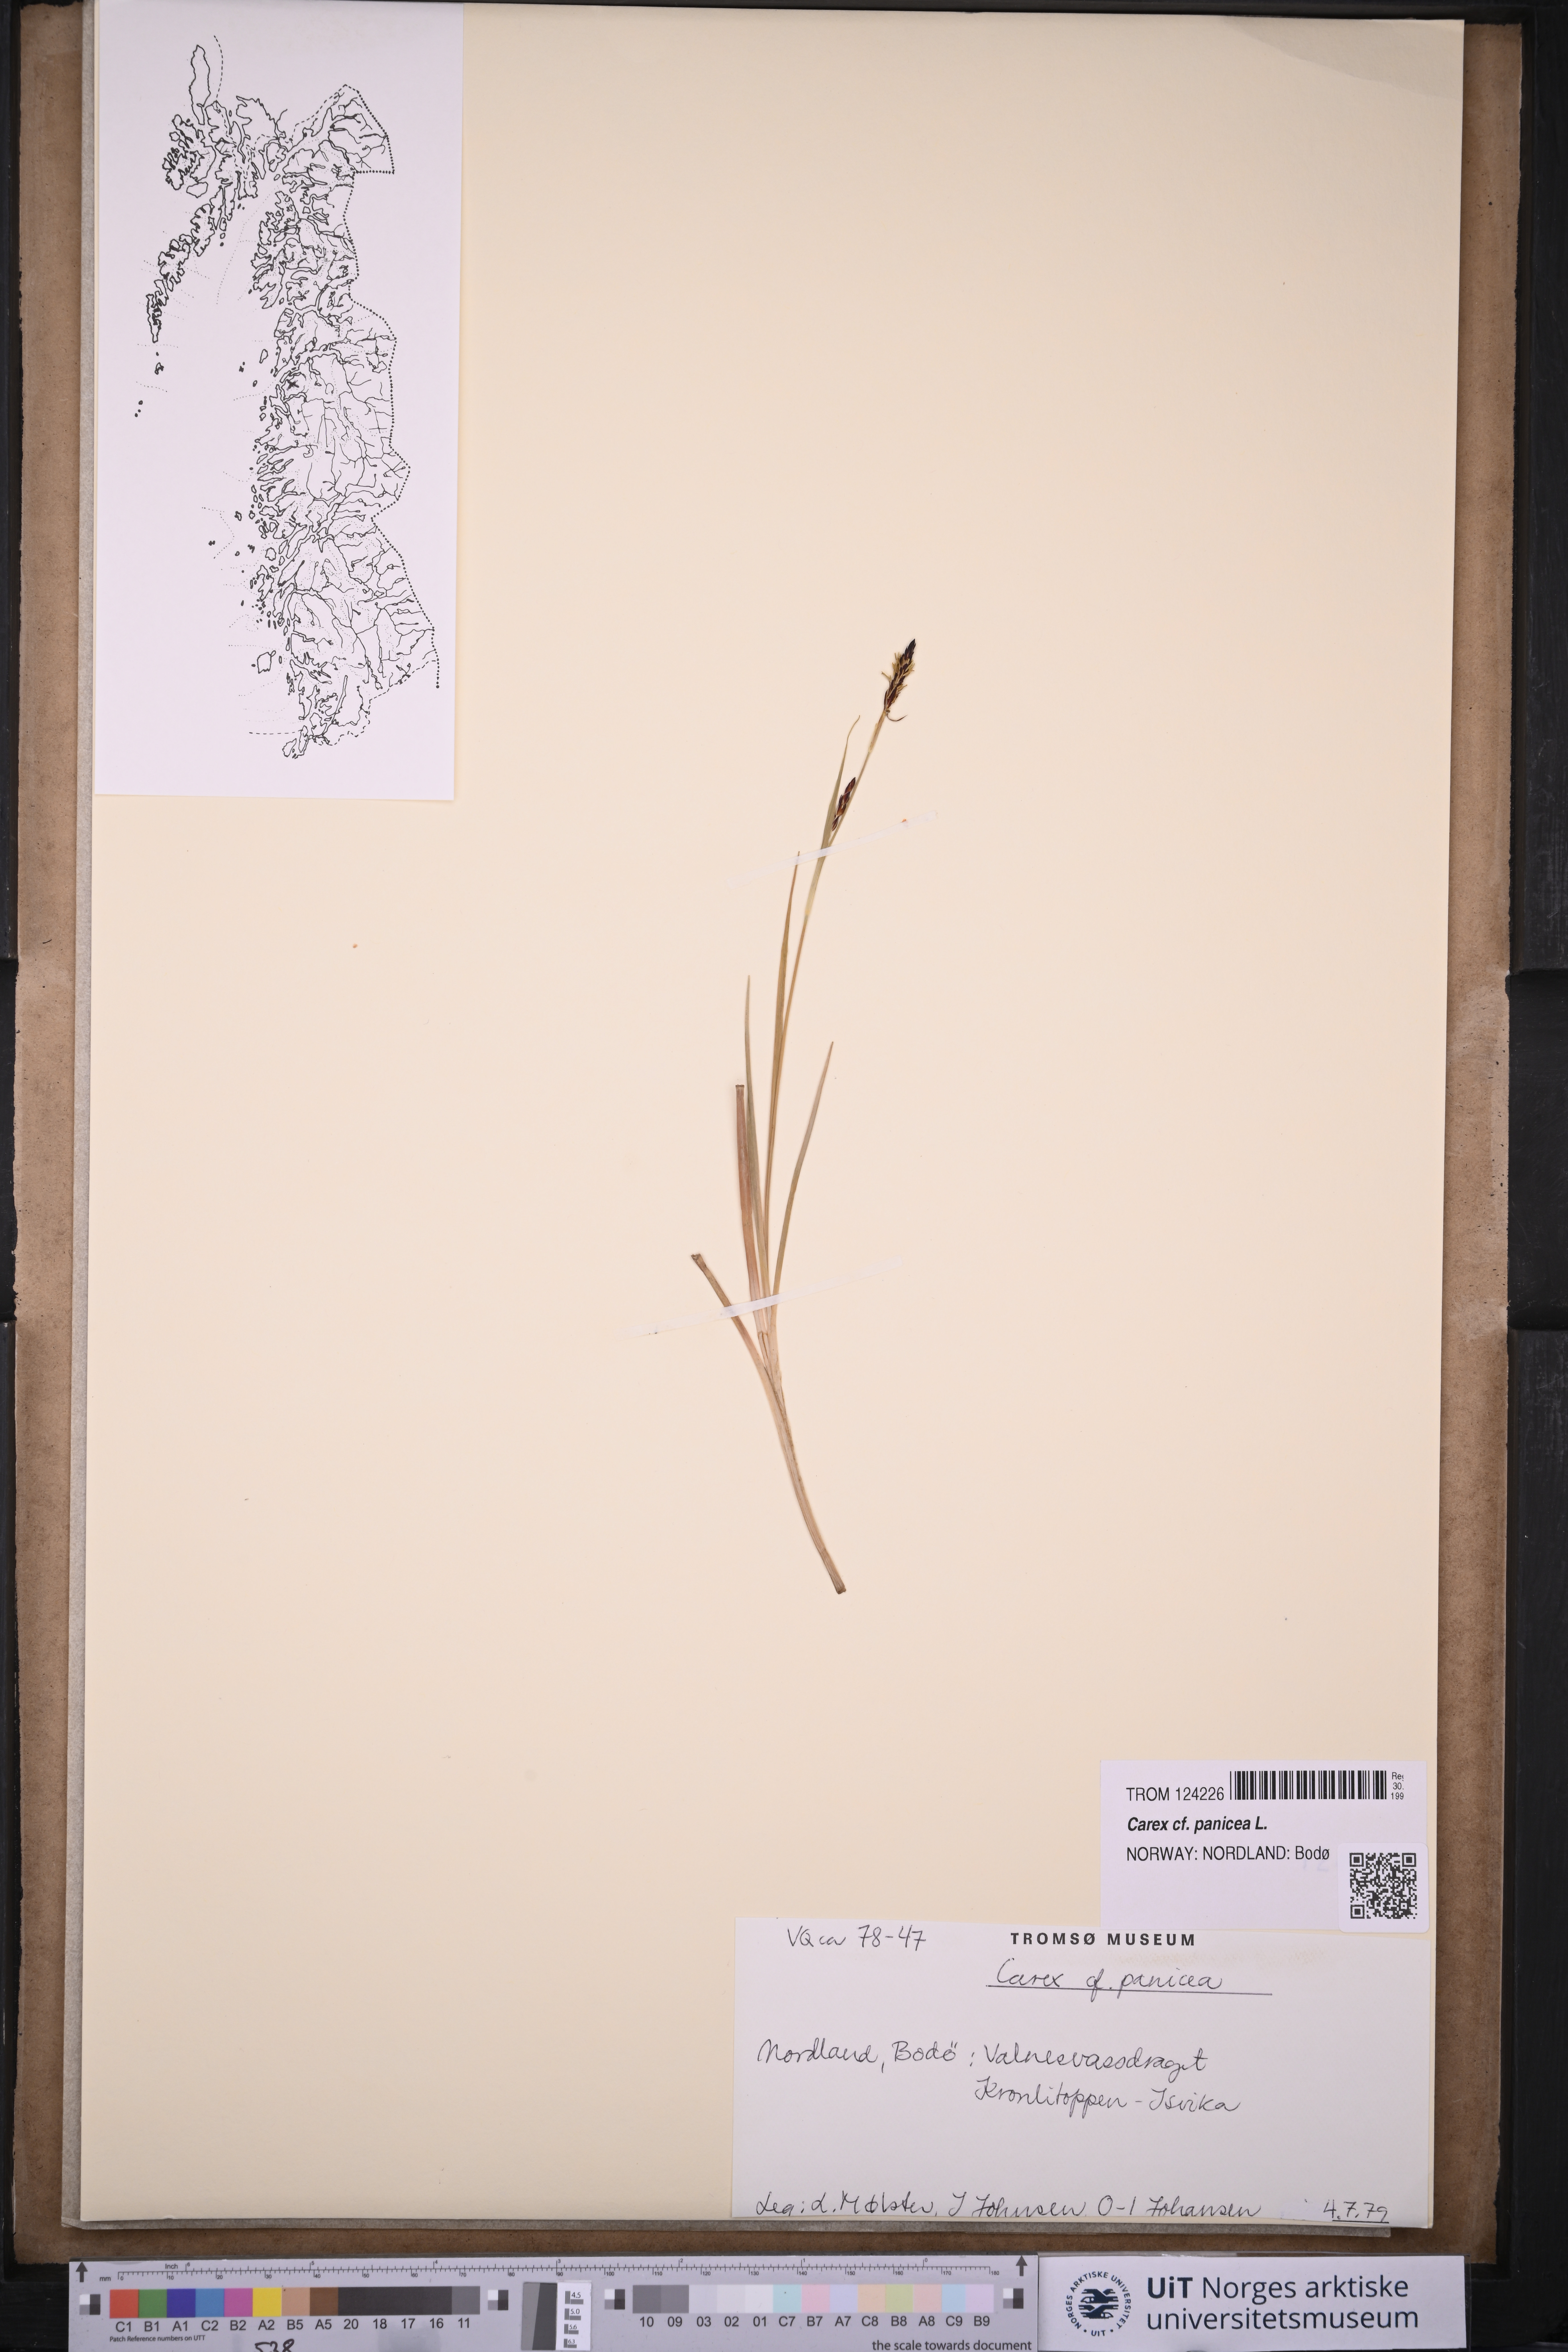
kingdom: Plantae
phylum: Tracheophyta
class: Liliopsida
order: Poales
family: Cyperaceae
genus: Carex
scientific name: Carex panicea
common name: Carnation sedge
